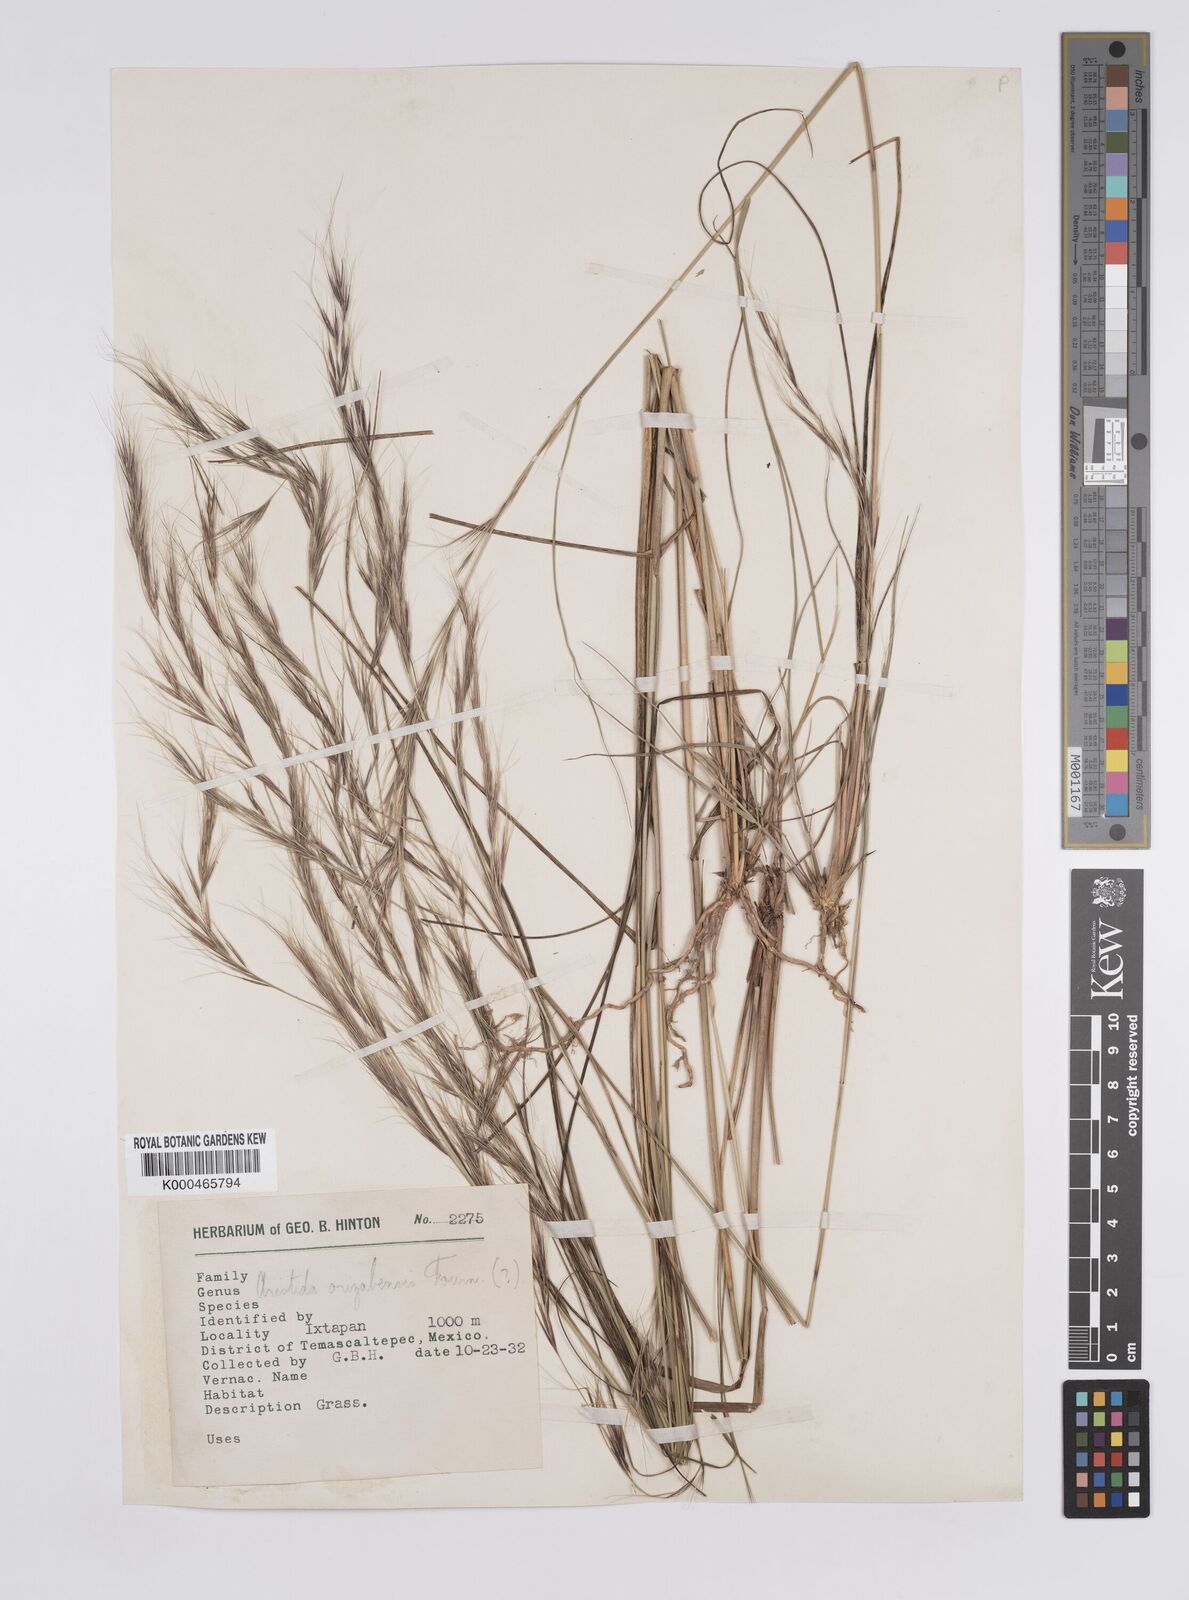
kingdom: Plantae
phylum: Tracheophyta
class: Liliopsida
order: Poales
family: Poaceae
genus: Aristida
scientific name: Aristida arizonica
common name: Arizona threeawn
